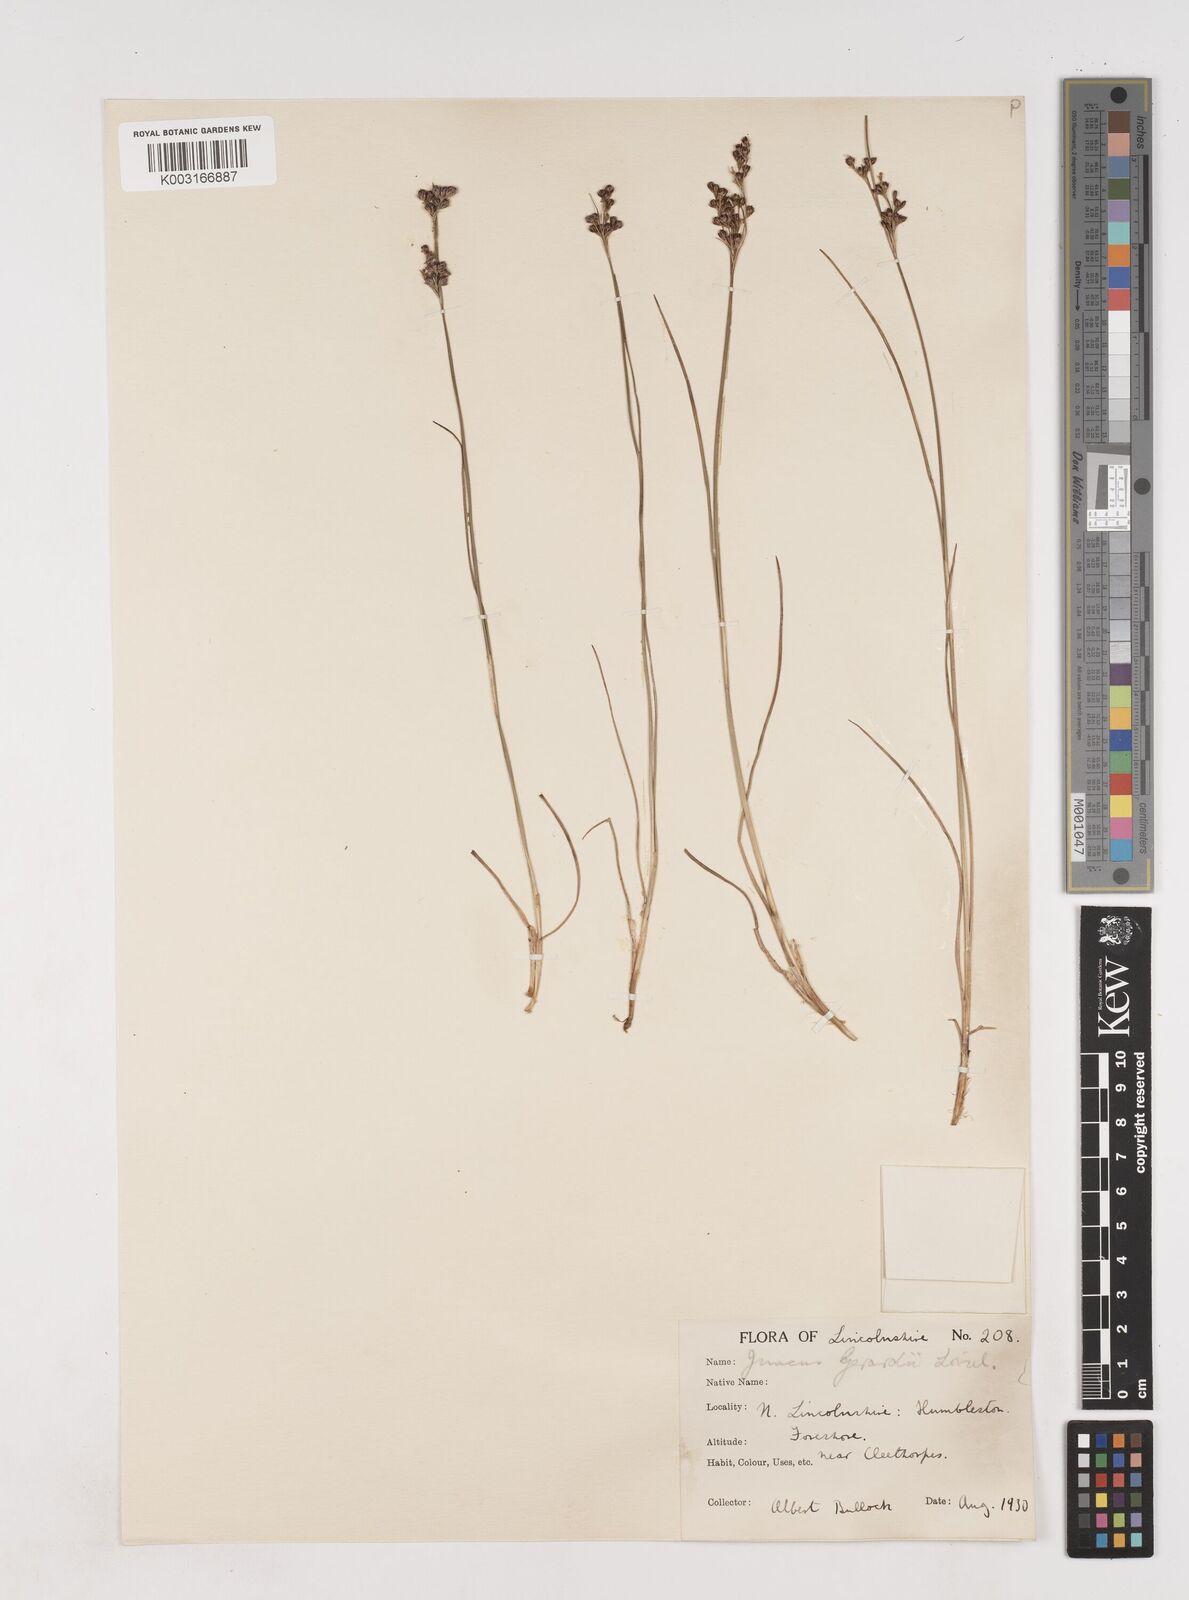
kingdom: Plantae
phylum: Tracheophyta
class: Liliopsida
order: Poales
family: Juncaceae
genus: Juncus
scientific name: Juncus gerardi
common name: Saltmarsh rush
